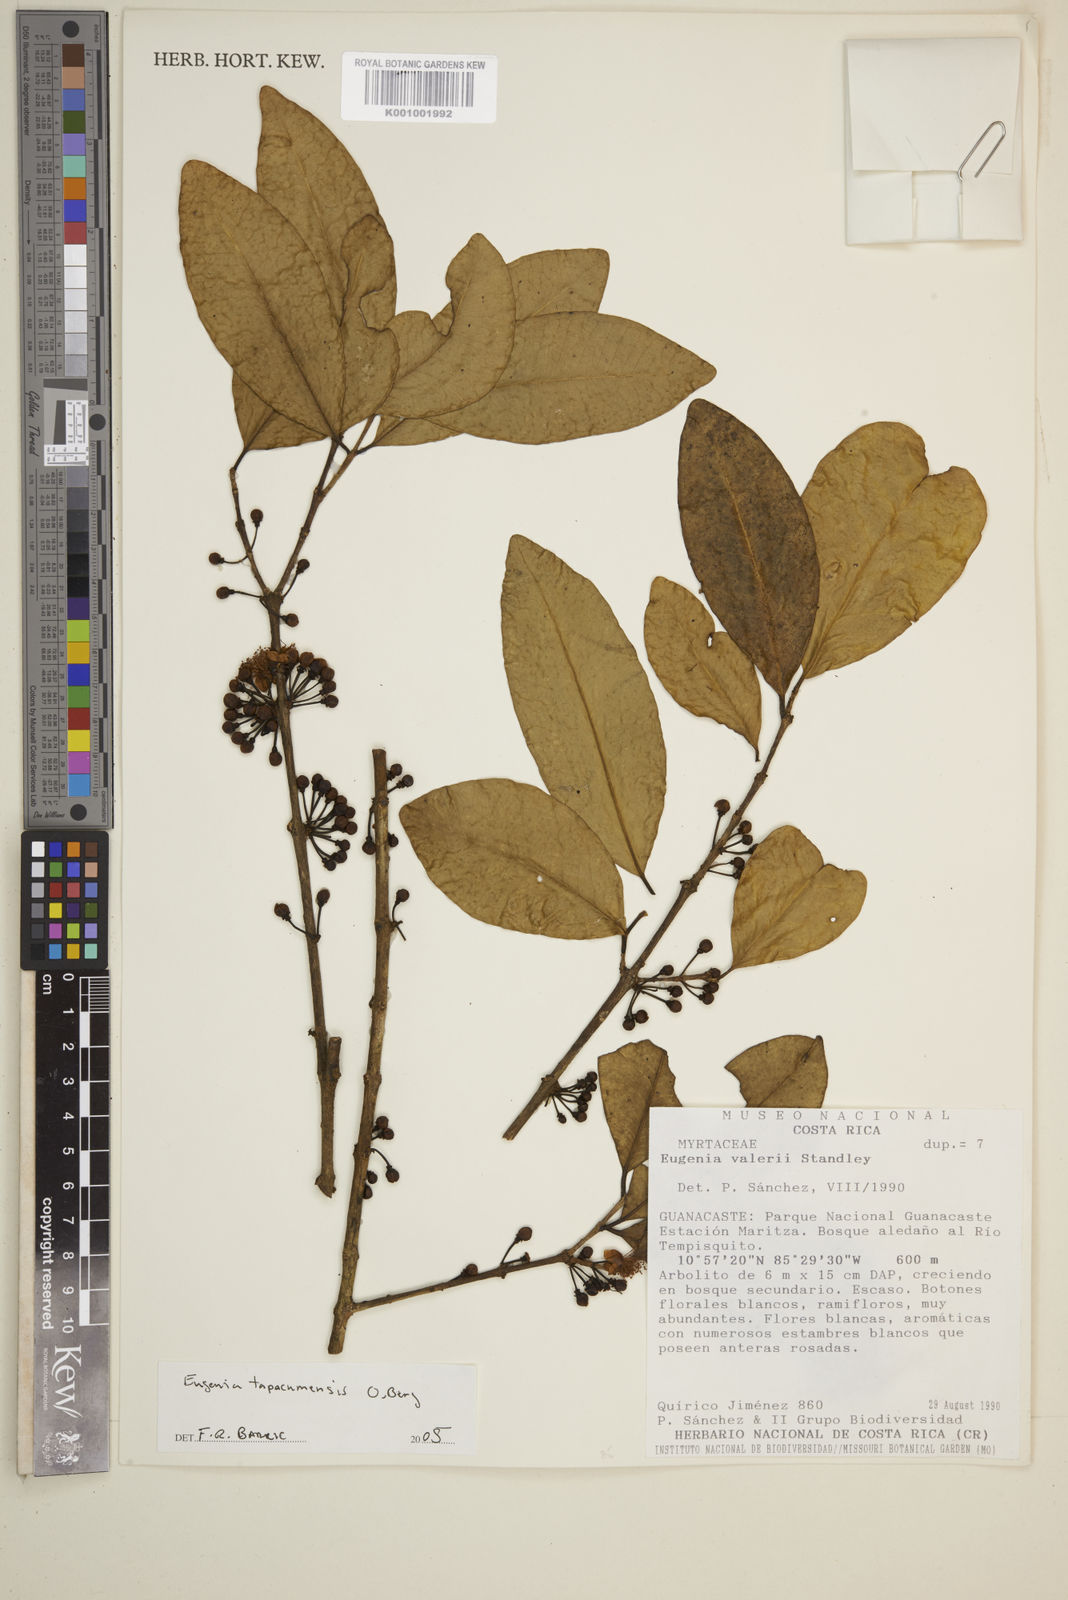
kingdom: Plantae
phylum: Tracheophyta
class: Magnoliopsida
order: Myrtales
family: Myrtaceae
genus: Eugenia
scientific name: Eugenia tapacumensis
